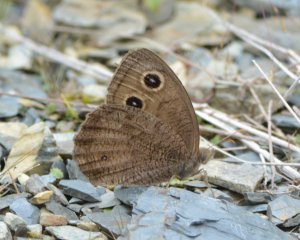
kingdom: Animalia
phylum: Arthropoda
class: Insecta
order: Lepidoptera
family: Nymphalidae
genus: Cercyonis
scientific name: Cercyonis pegala
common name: Common Wood-Nymph
